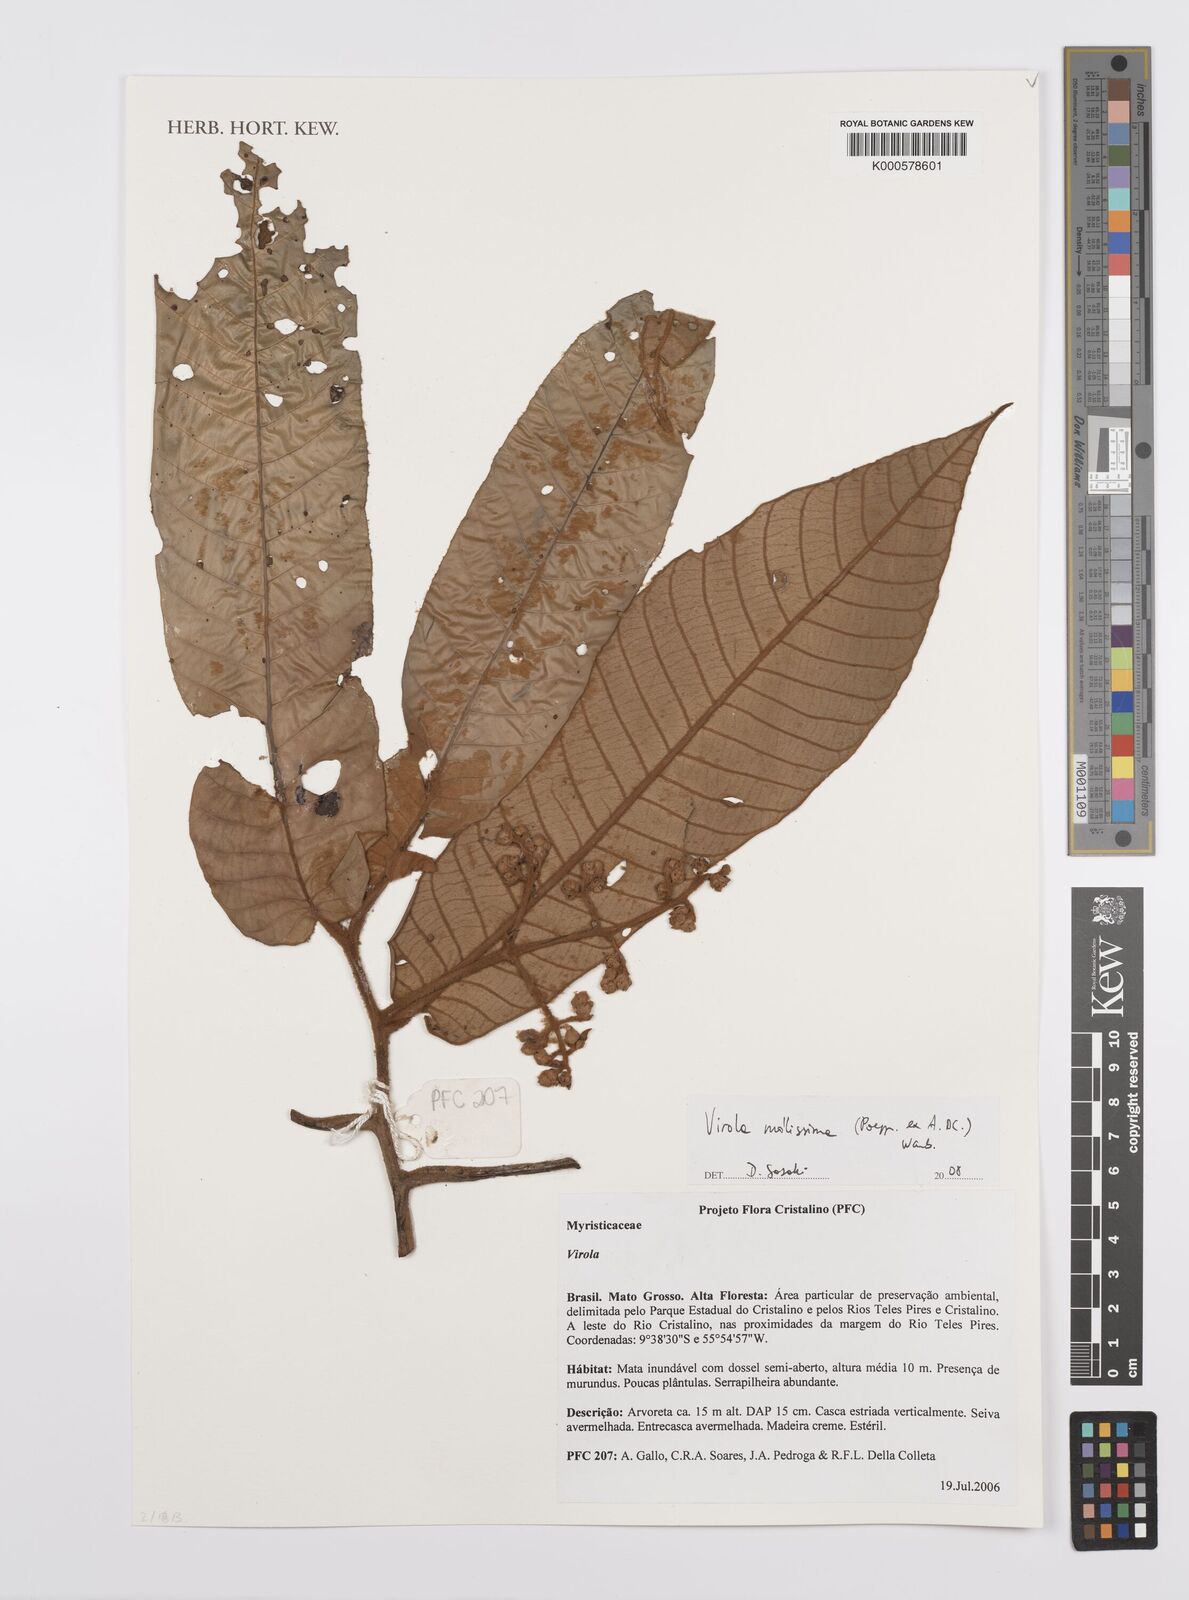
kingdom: Plantae
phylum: Tracheophyta
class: Magnoliopsida
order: Magnoliales
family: Myristicaceae
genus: Virola
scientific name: Virola mollissima
